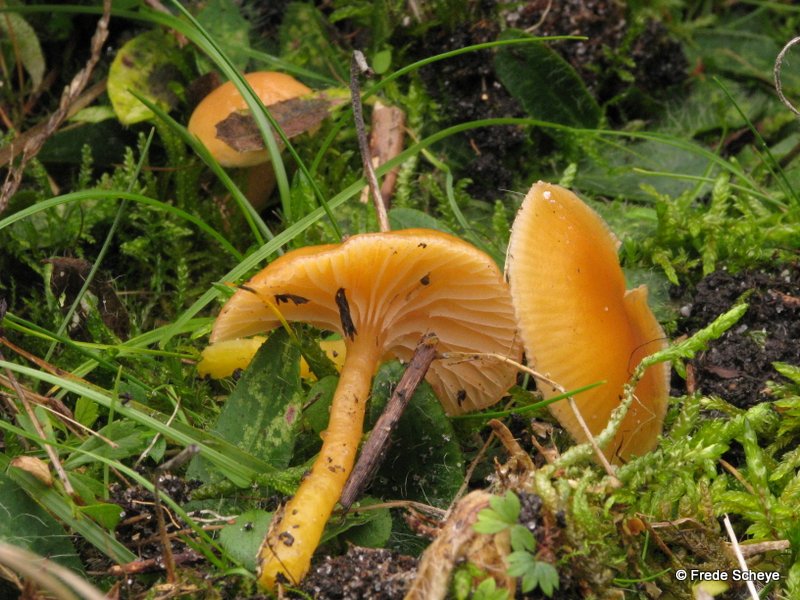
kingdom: Fungi
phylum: Basidiomycota
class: Agaricomycetes
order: Agaricales
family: Hygrophoraceae
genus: Gliophorus
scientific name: Gliophorus laetus
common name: brusk-vokshat
